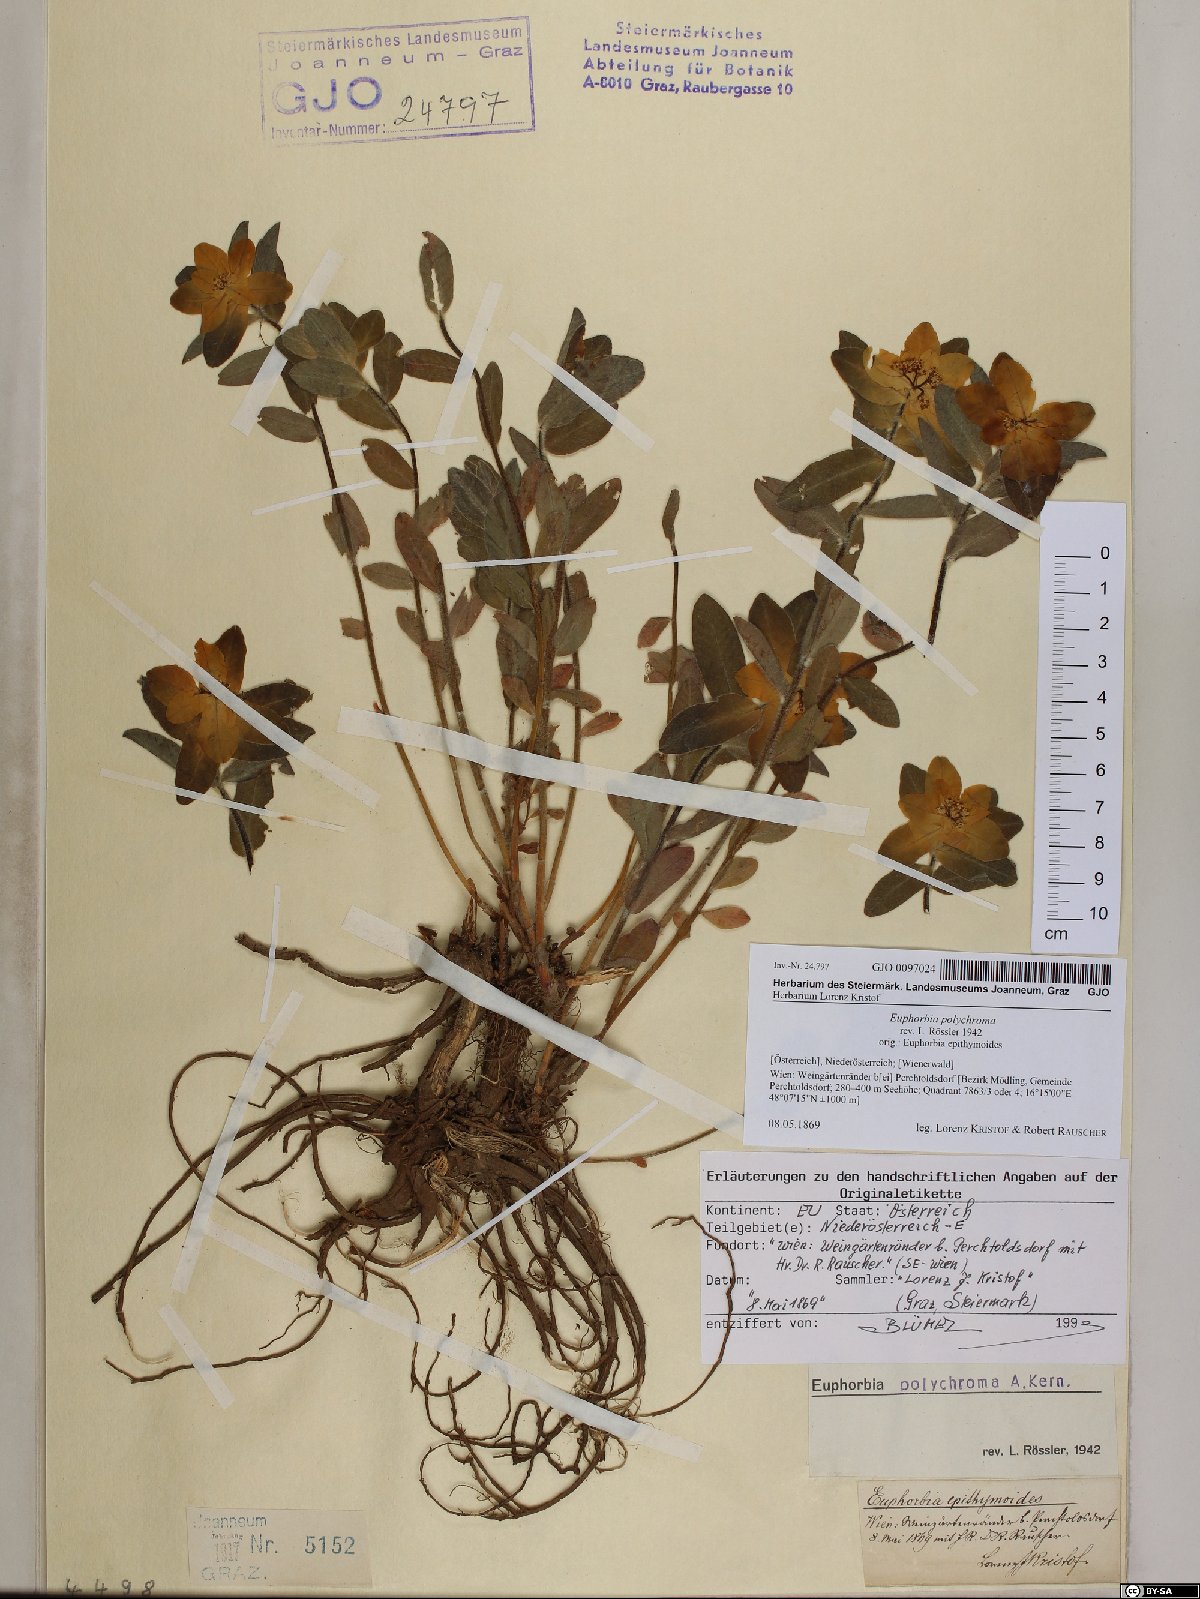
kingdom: Plantae
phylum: Tracheophyta
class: Magnoliopsida
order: Malpighiales
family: Euphorbiaceae
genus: Euphorbia
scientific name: Euphorbia epithymoides
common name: Cushion spurge
